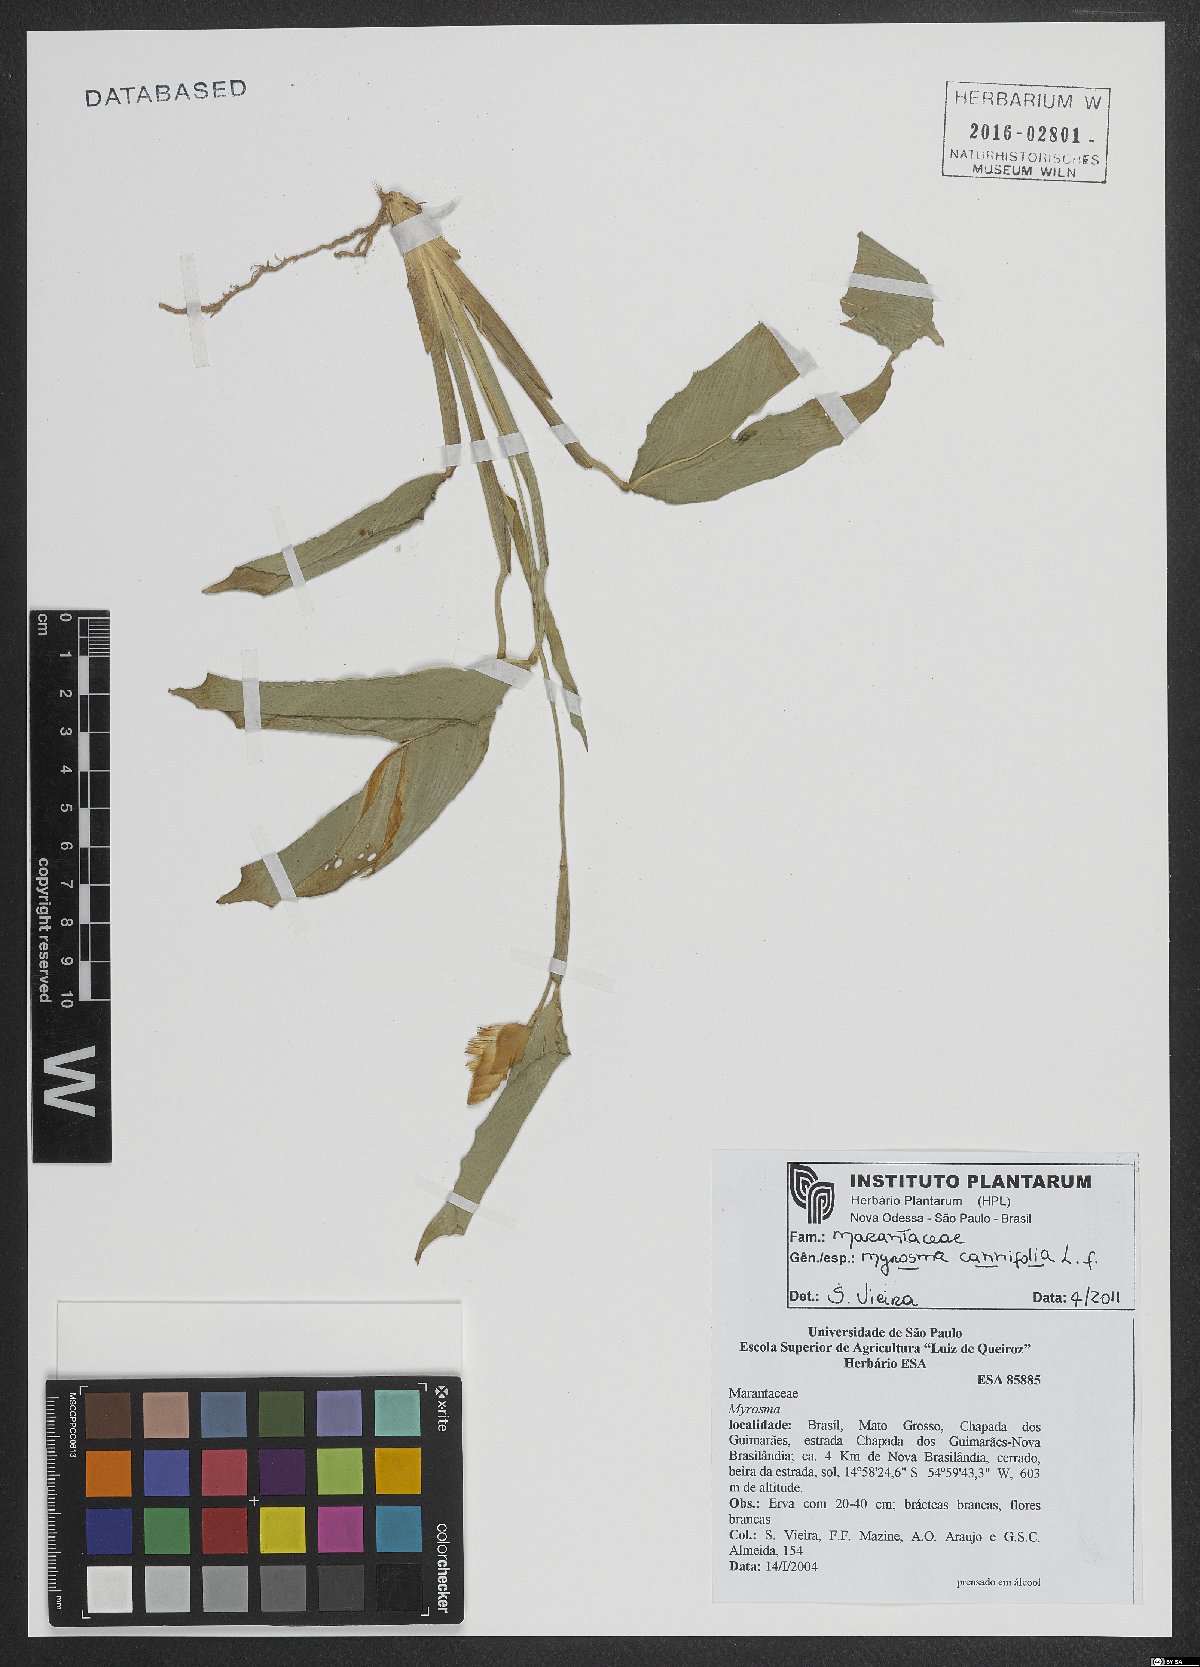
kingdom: Plantae
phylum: Tracheophyta
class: Liliopsida
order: Zingiberales
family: Marantaceae
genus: Myrosma
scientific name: Myrosma cannifolia
